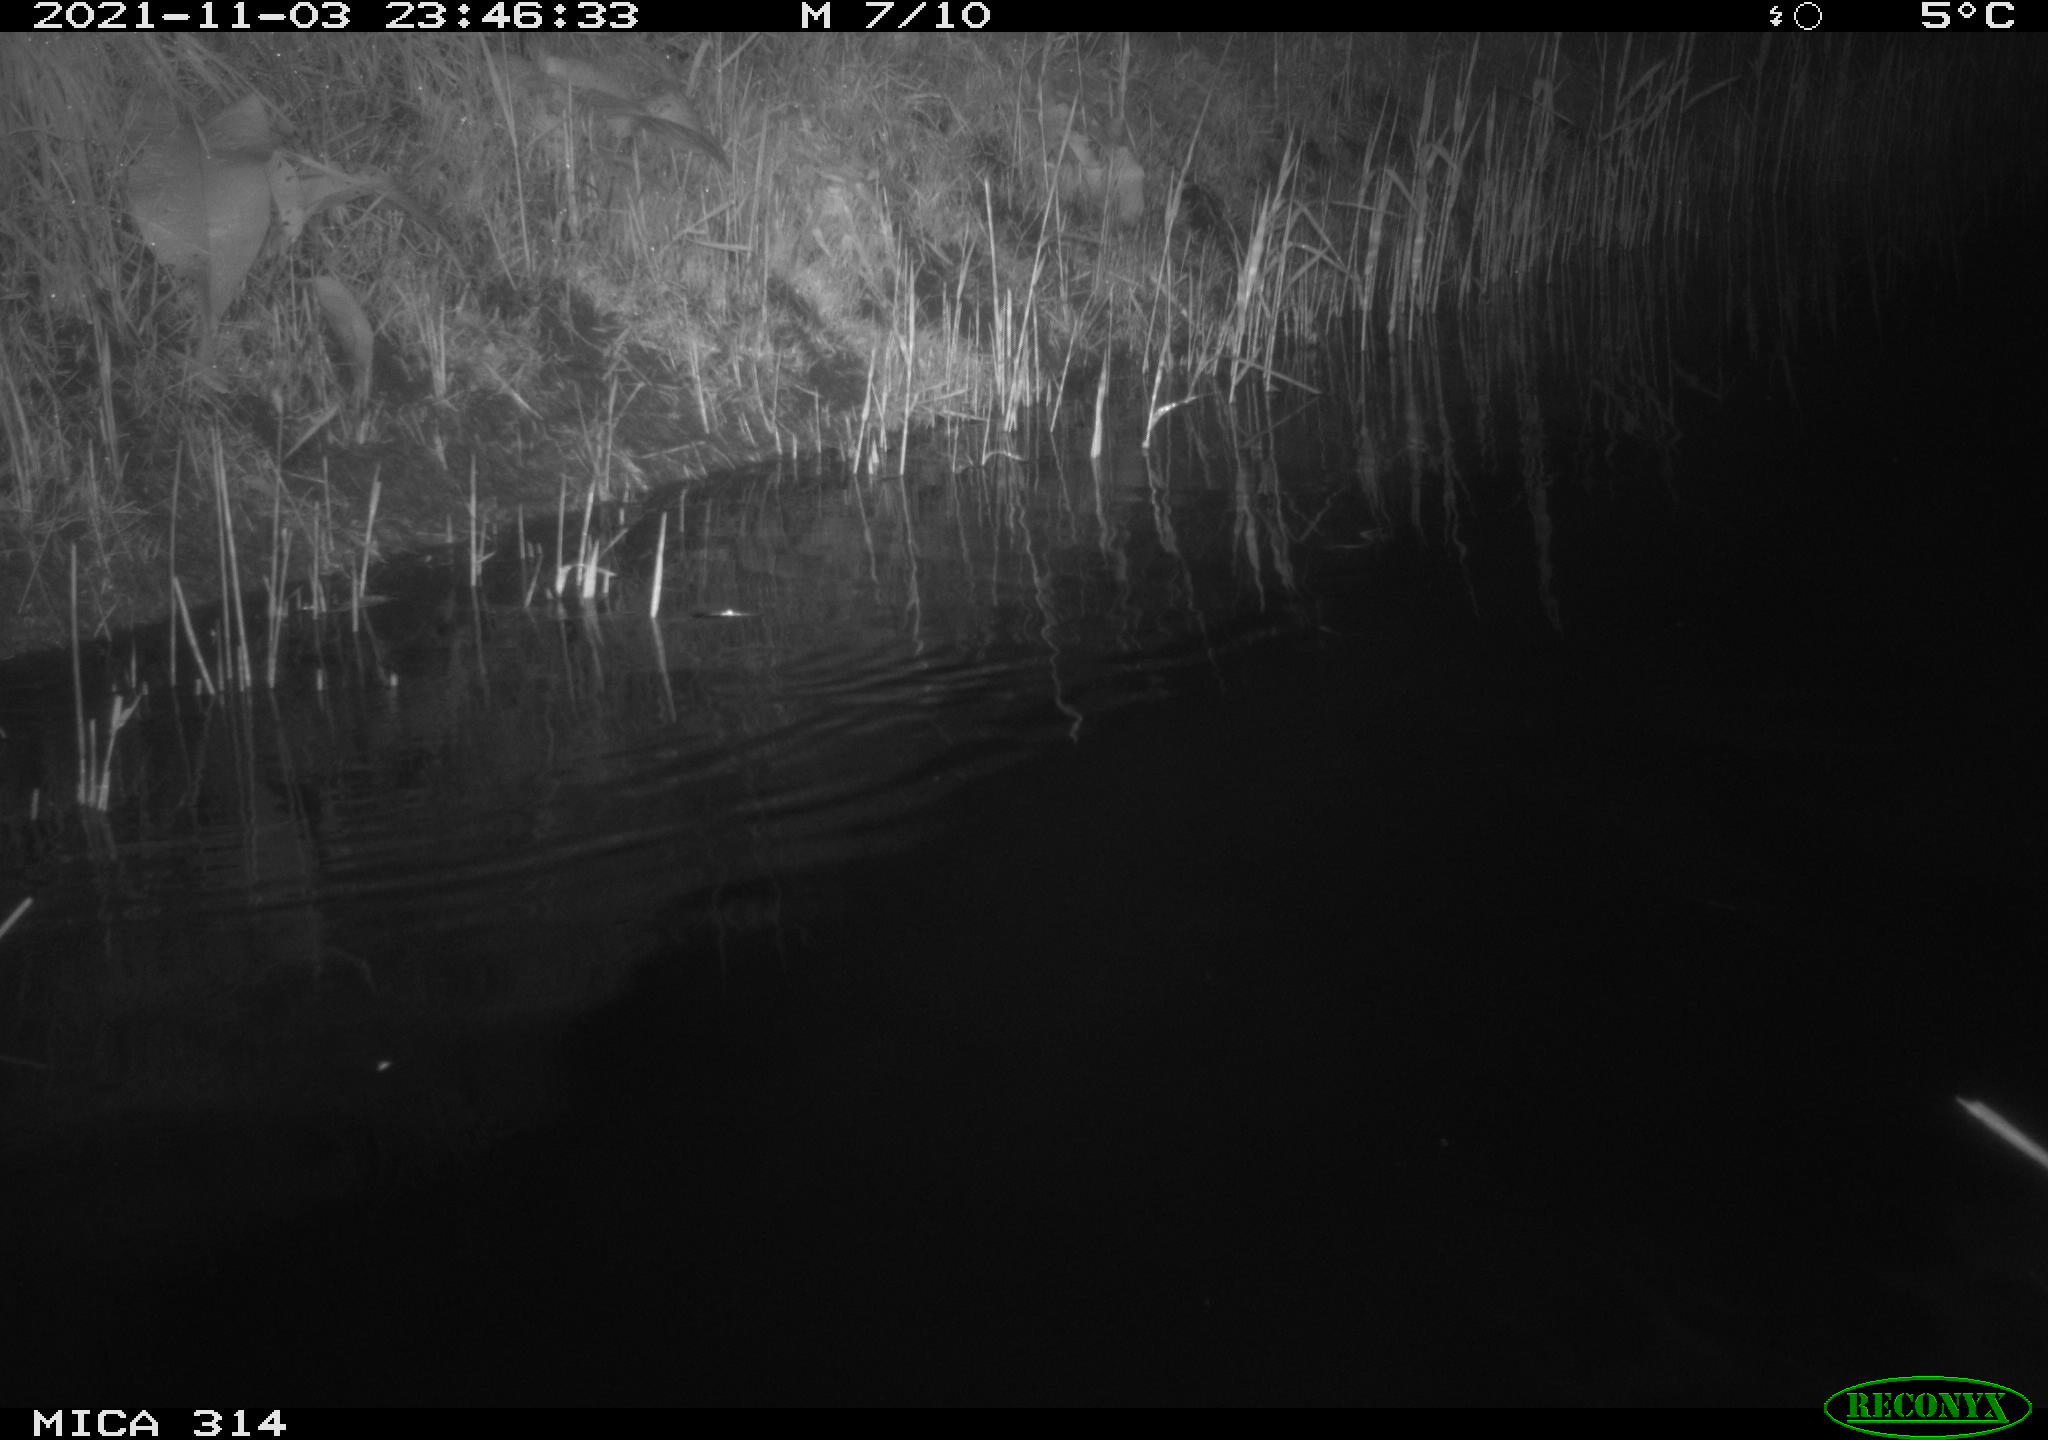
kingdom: Animalia
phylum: Chordata
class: Mammalia
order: Rodentia
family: Muridae
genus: Rattus
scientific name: Rattus norvegicus
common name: Brown rat
